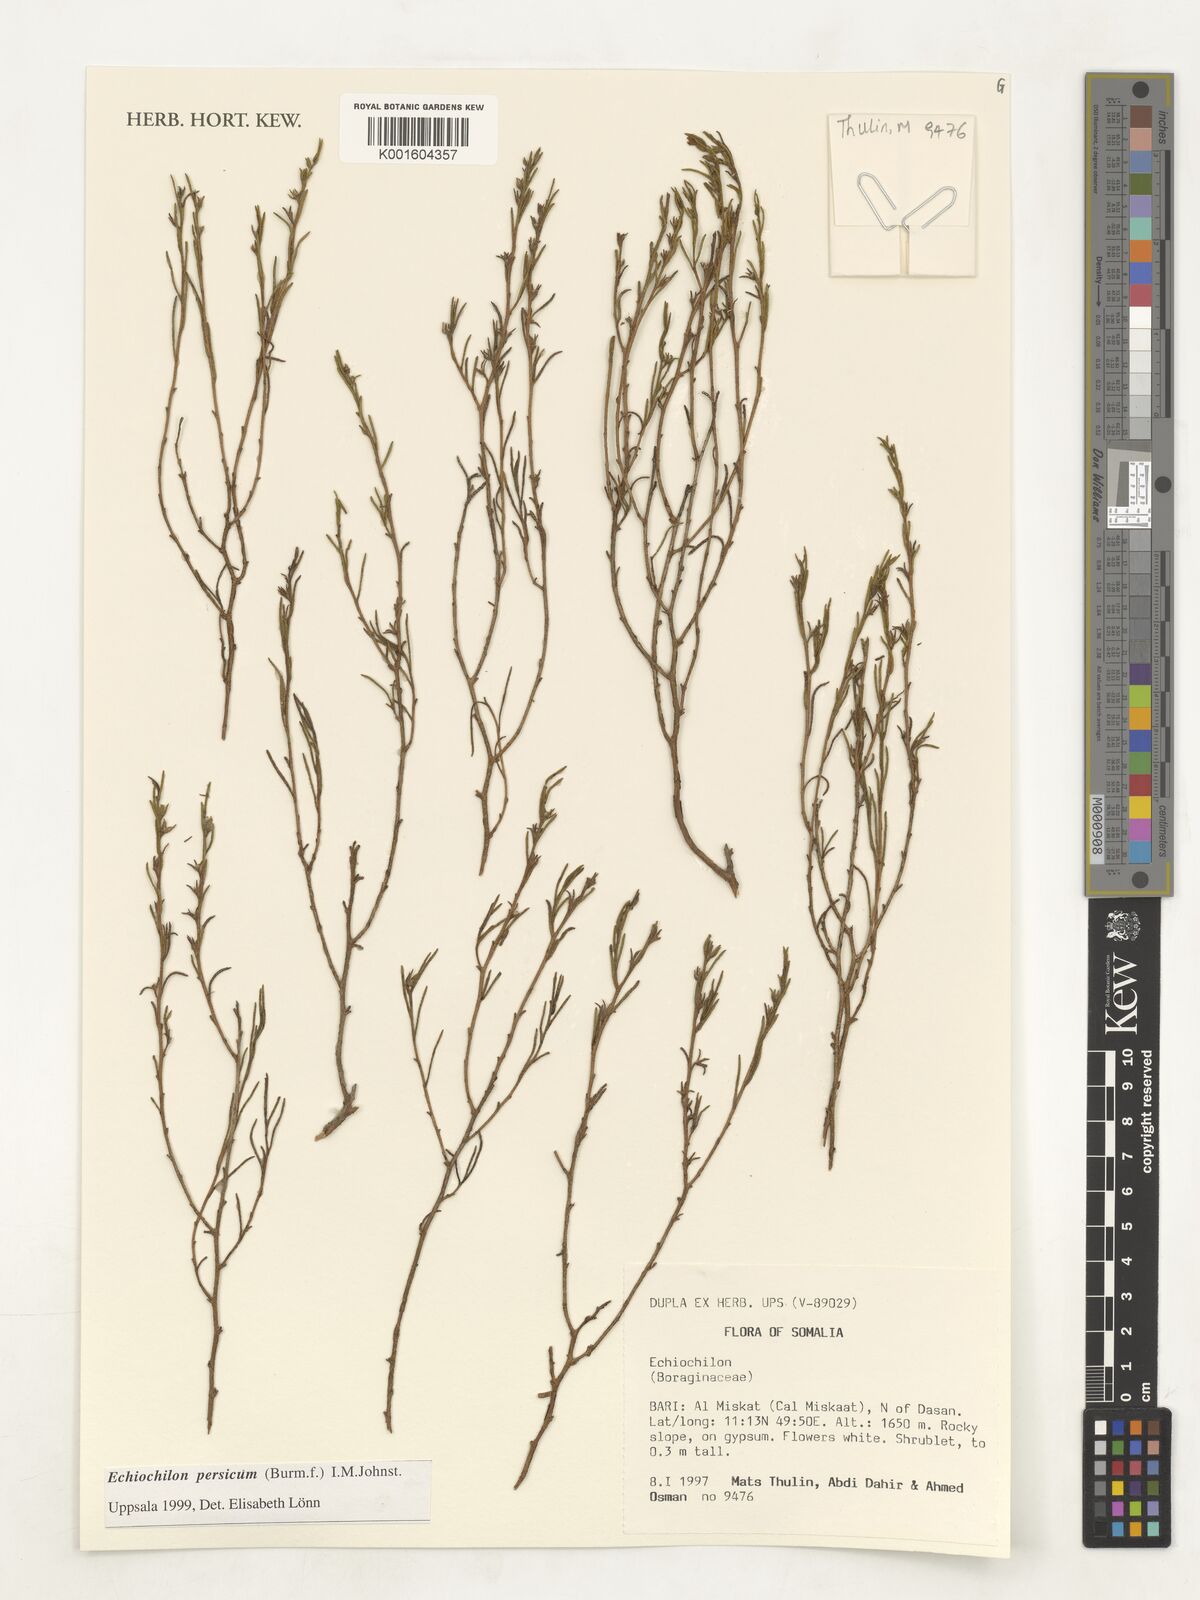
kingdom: Plantae
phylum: Tracheophyta
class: Magnoliopsida
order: Boraginales
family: Boraginaceae
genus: Echiochilon
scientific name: Echiochilon persicum
